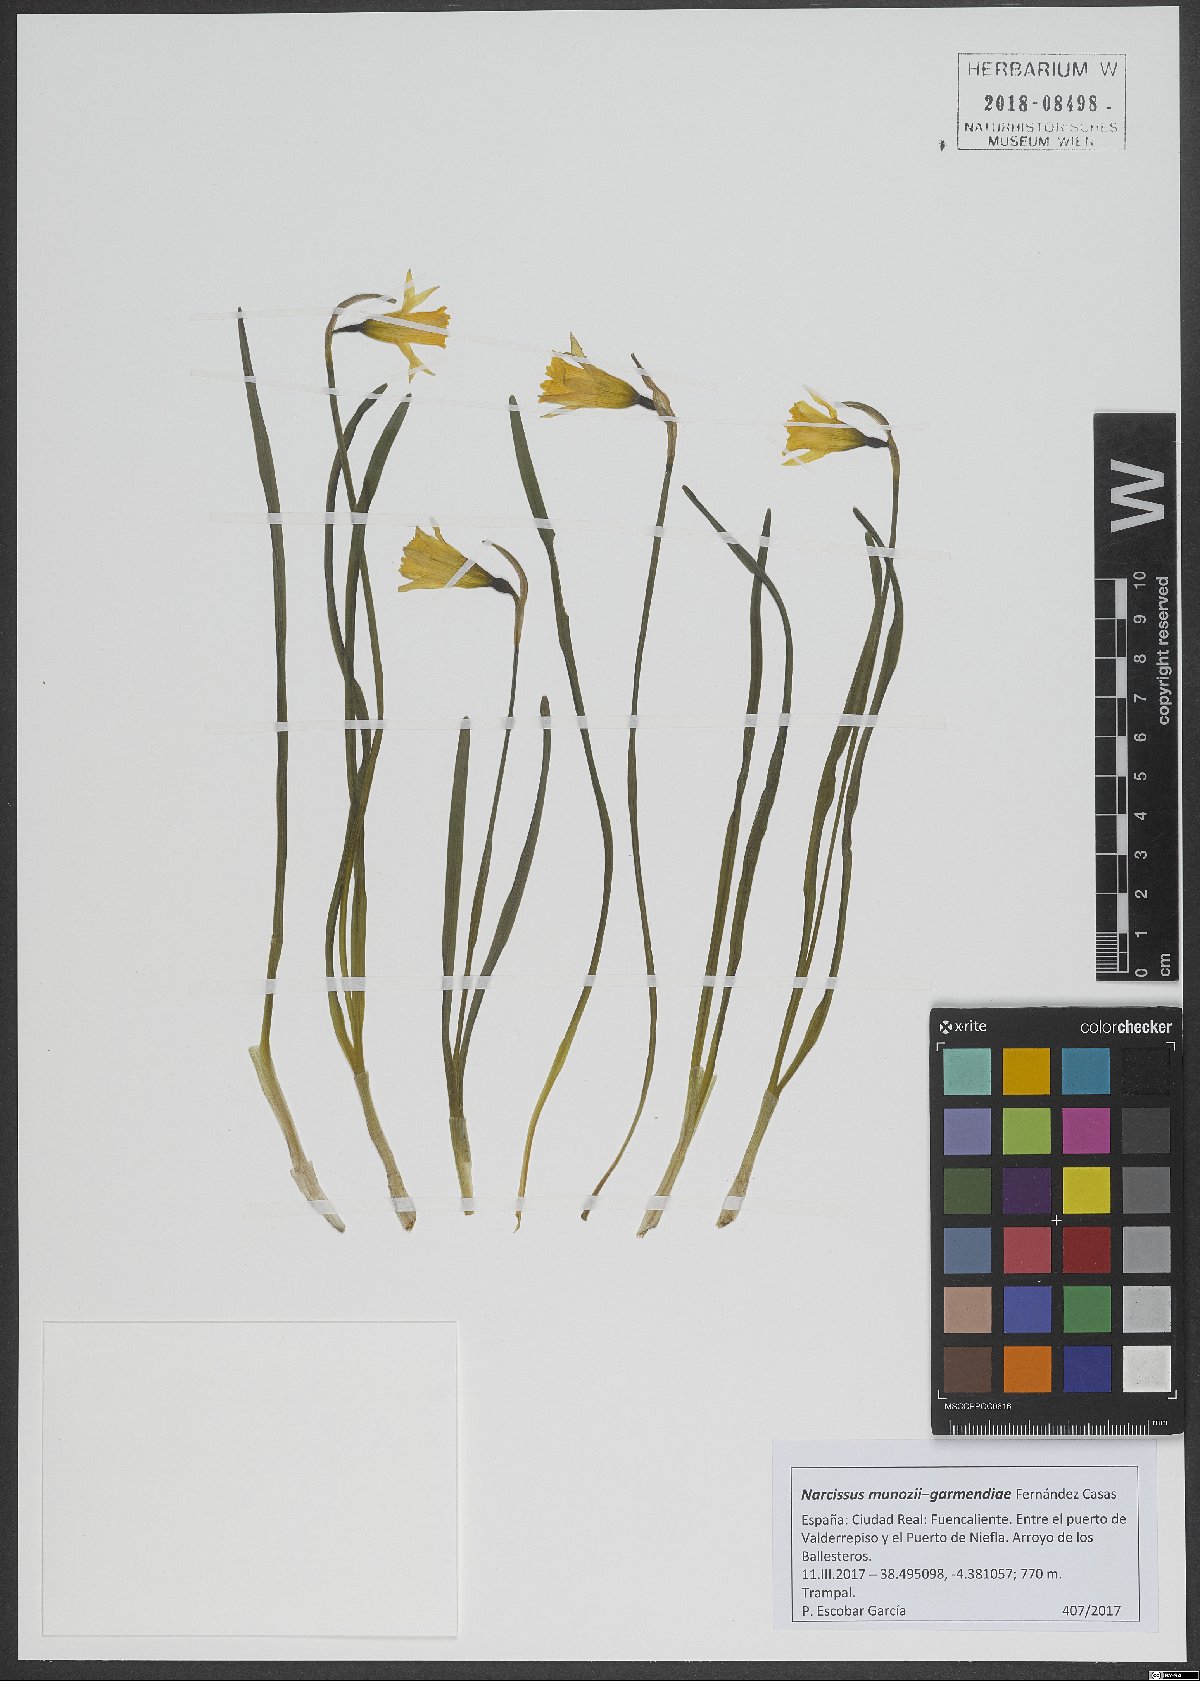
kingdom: Plantae
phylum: Tracheophyta
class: Liliopsida
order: Asparagales
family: Amaryllidaceae
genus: Narcissus
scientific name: Narcissus munozii-garmendiae
